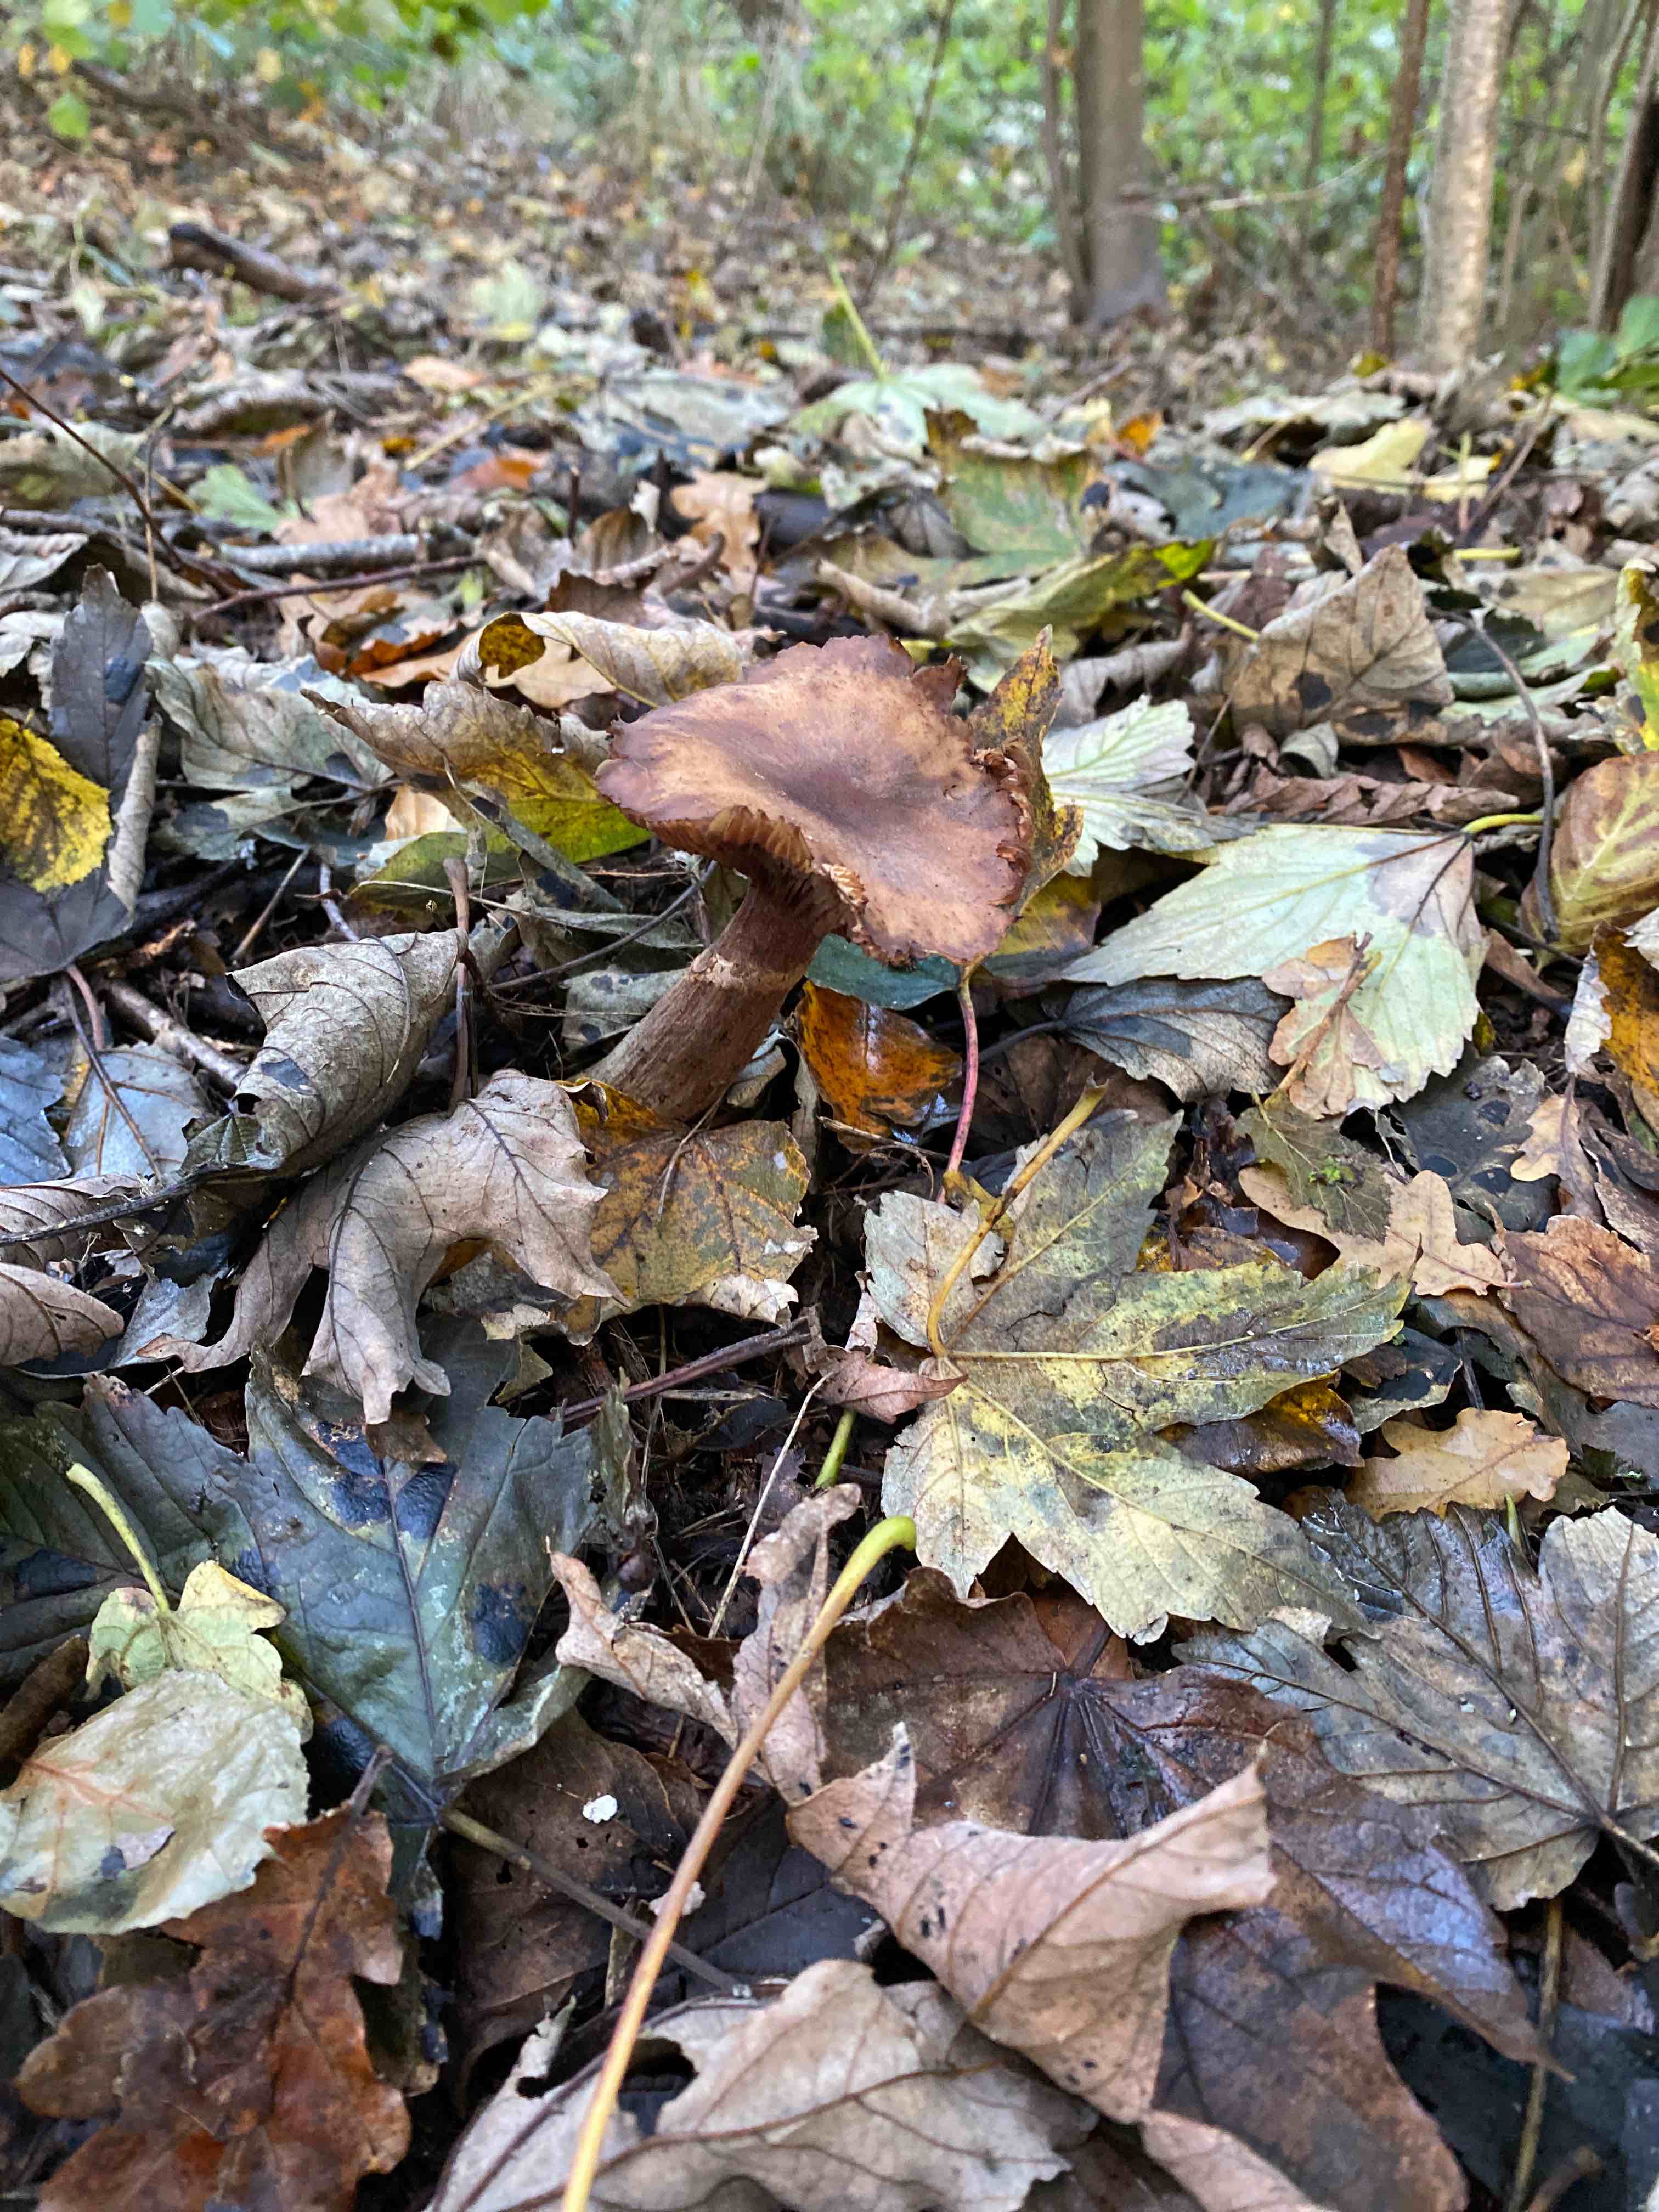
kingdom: Fungi
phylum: Basidiomycota
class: Agaricomycetes
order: Agaricales
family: Physalacriaceae
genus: Armillaria
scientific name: Armillaria
